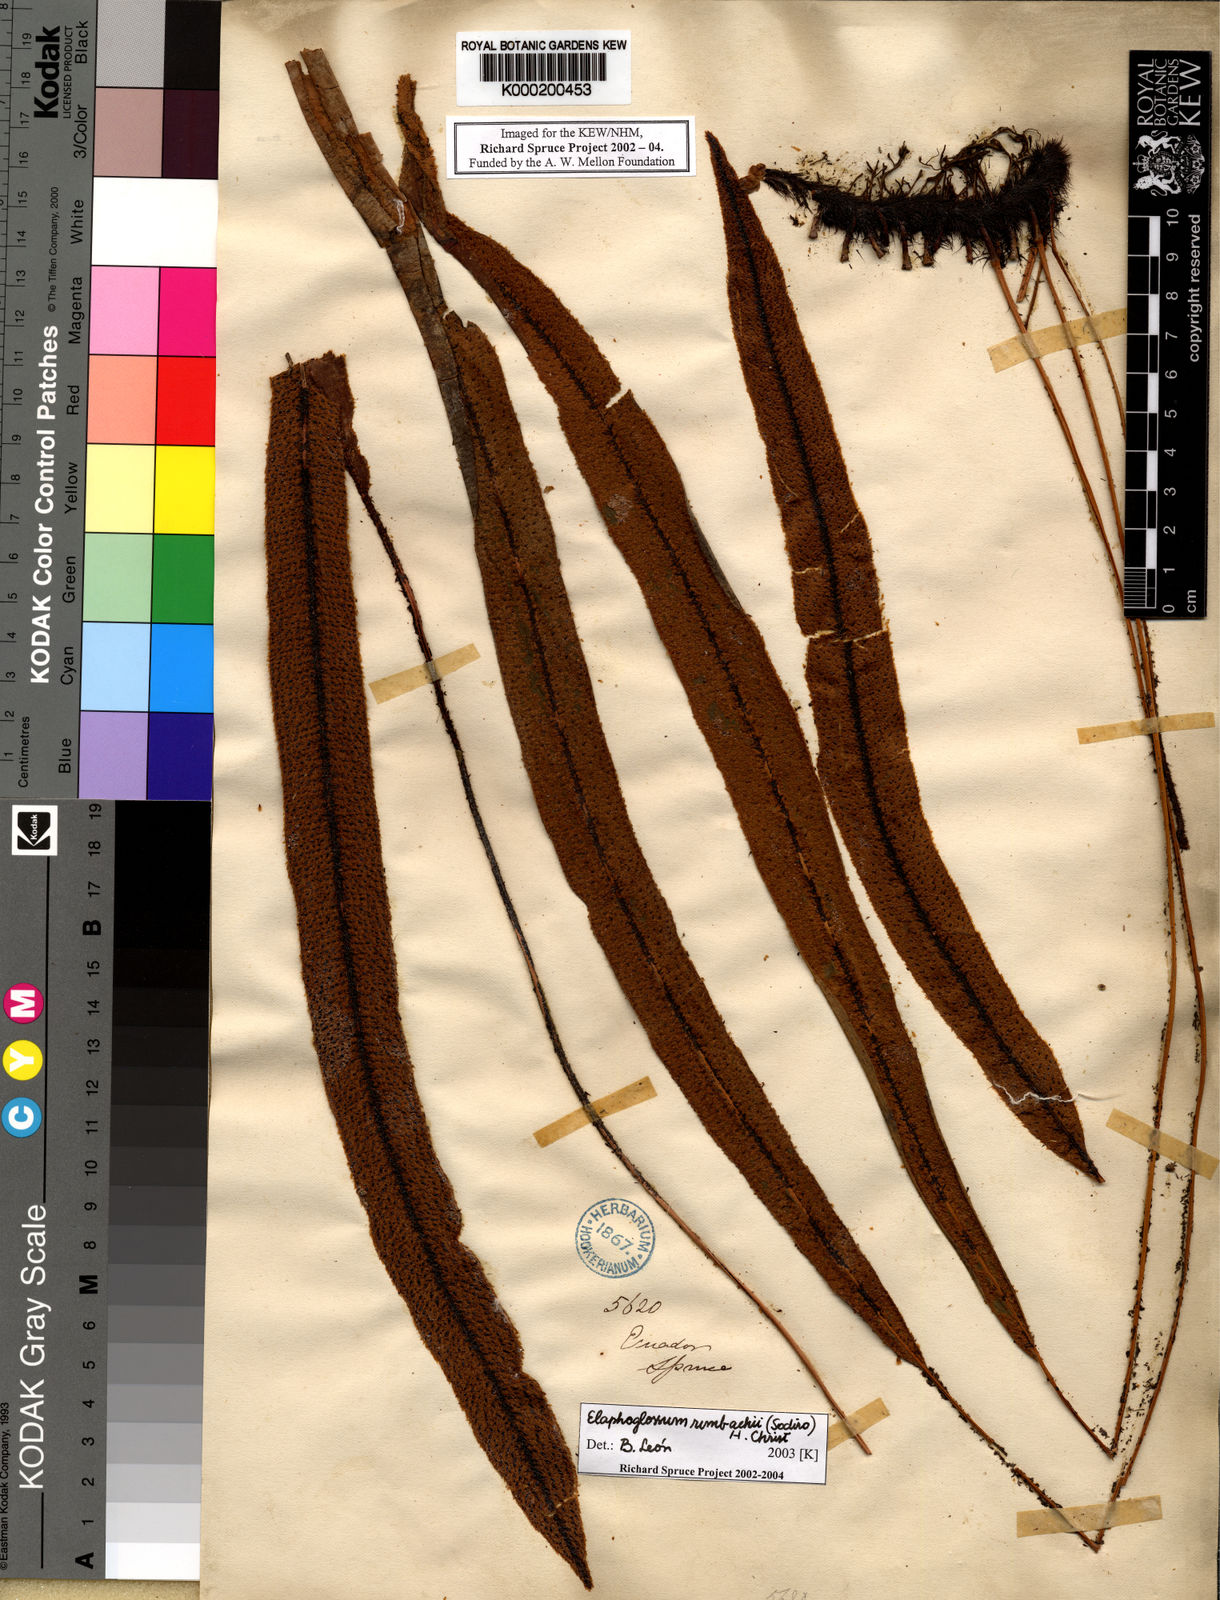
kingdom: Plantae
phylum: Tracheophyta
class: Polypodiopsida
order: Polypodiales
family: Dryopteridaceae
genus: Elaphoglossum
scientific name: Elaphoglossum rimbachii
